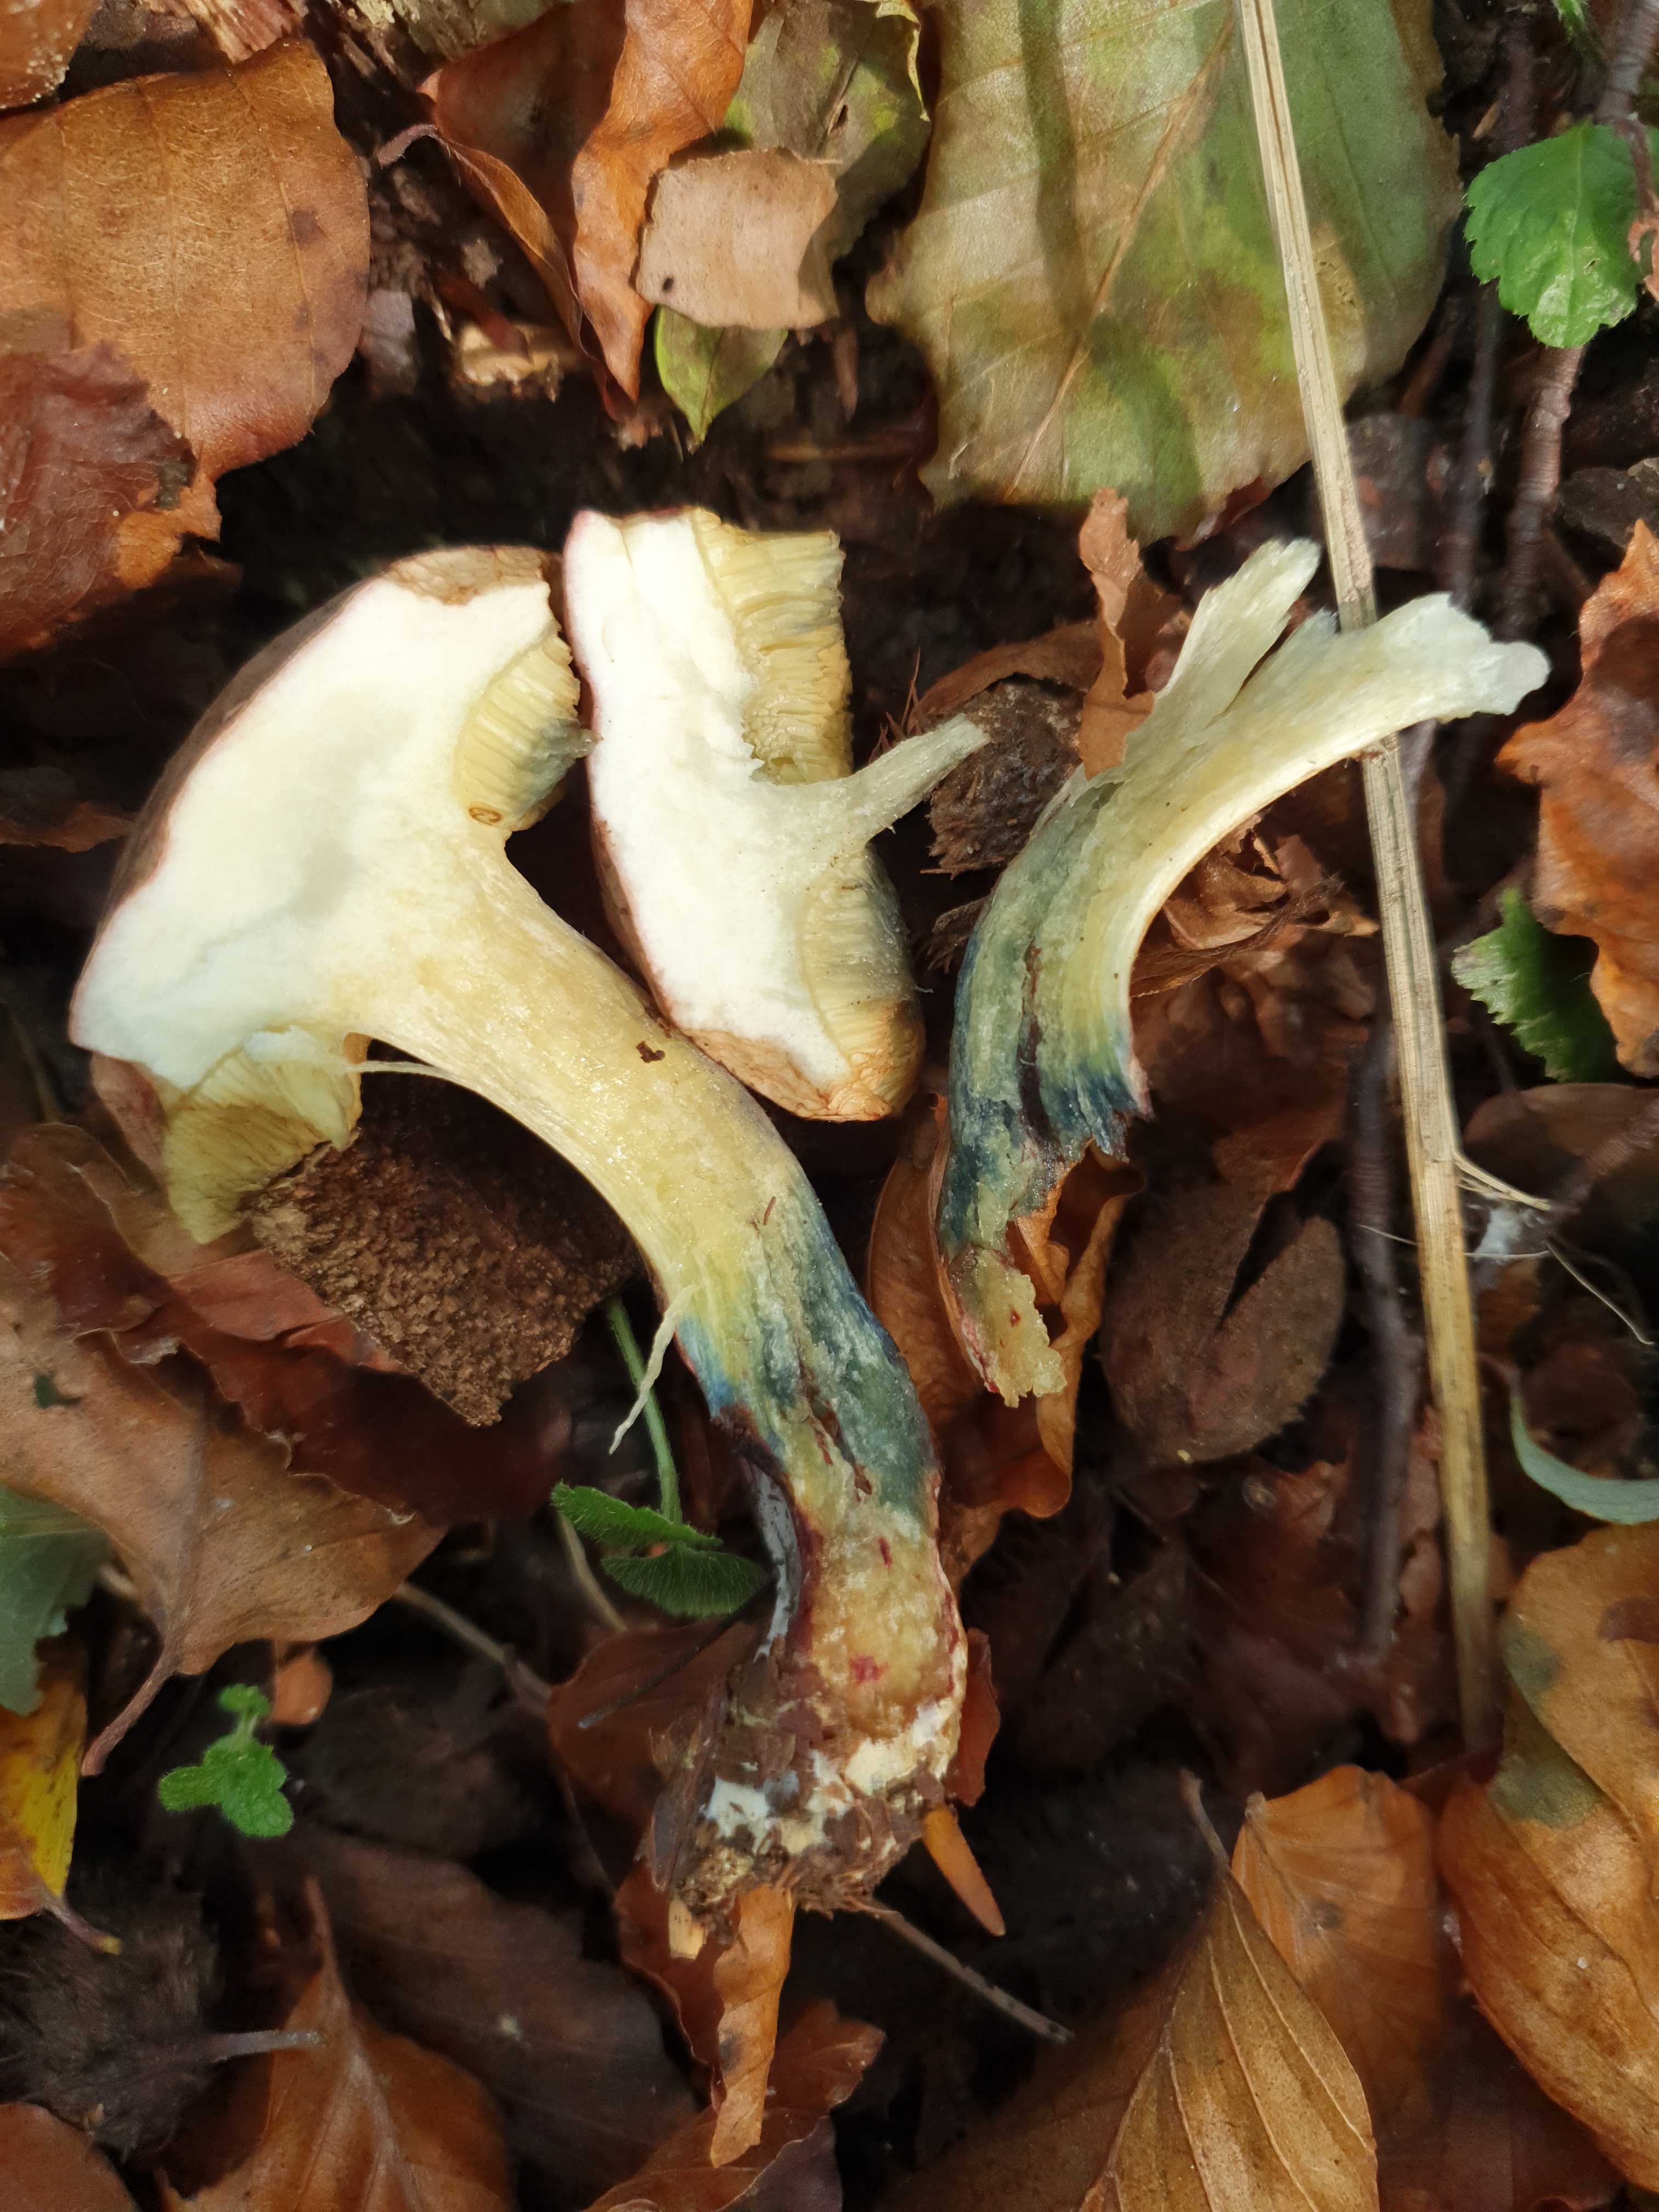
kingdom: Fungi
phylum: Basidiomycota
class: Agaricomycetes
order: Boletales
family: Boletaceae
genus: Xerocomellus
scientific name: Xerocomellus cisalpinus
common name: finsprukken rørhat
